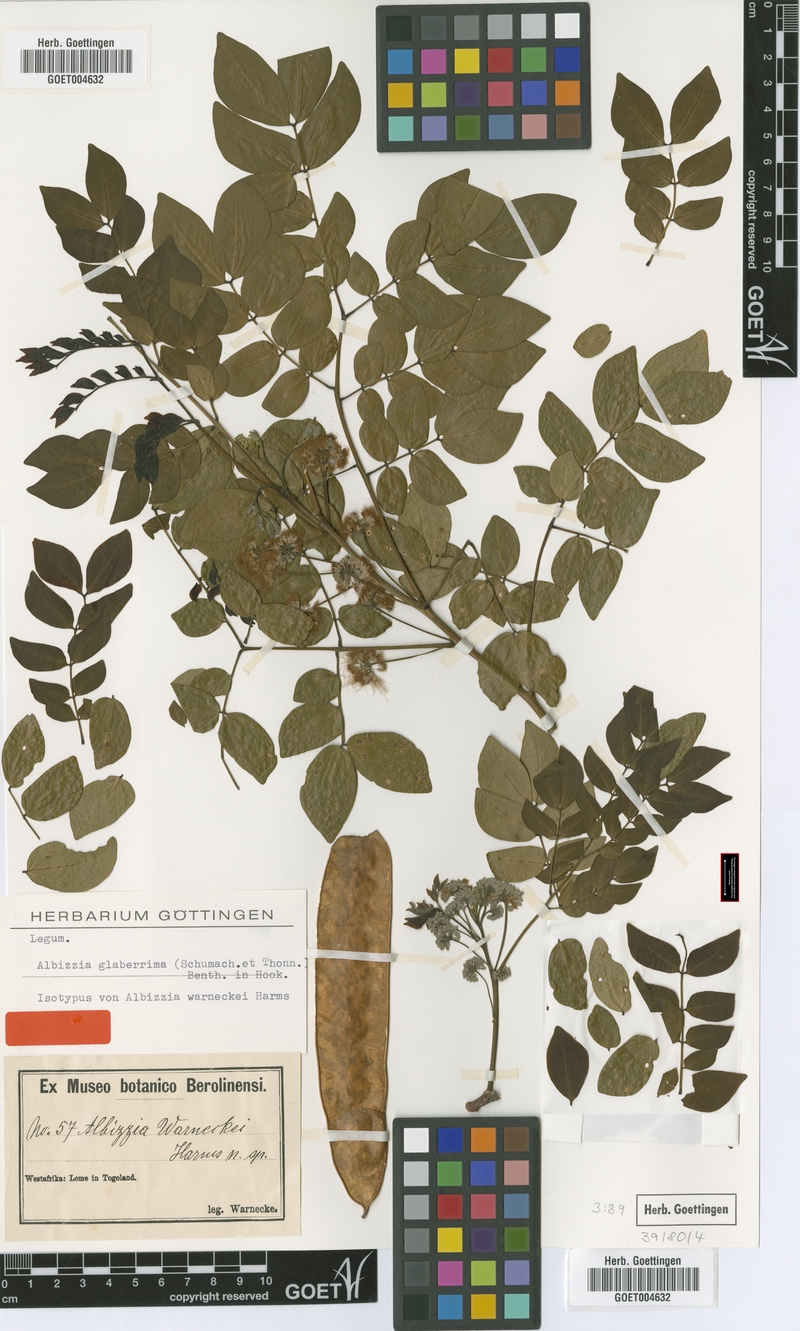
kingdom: Plantae
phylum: Tracheophyta
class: Magnoliopsida
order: Fabales
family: Fabaceae
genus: Albizia
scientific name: Albizia glaberrima
